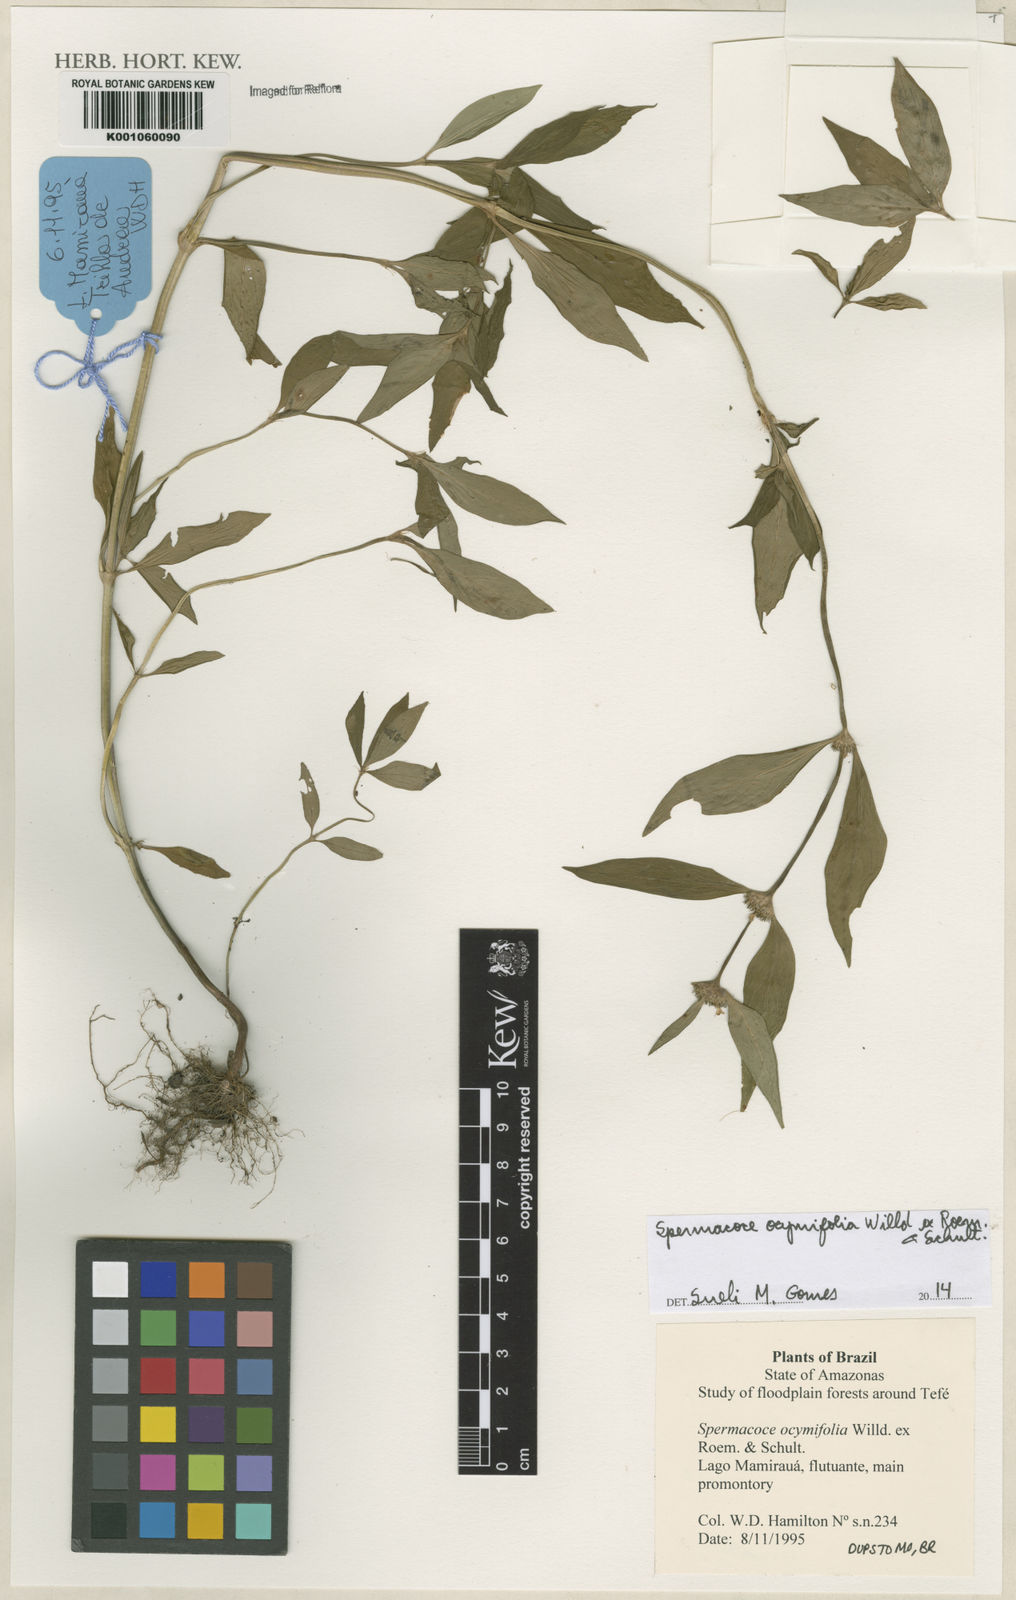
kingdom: Plantae
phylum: Tracheophyta
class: Magnoliopsida
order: Gentianales
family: Rubiaceae
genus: Spermacoce
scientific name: Spermacoce
